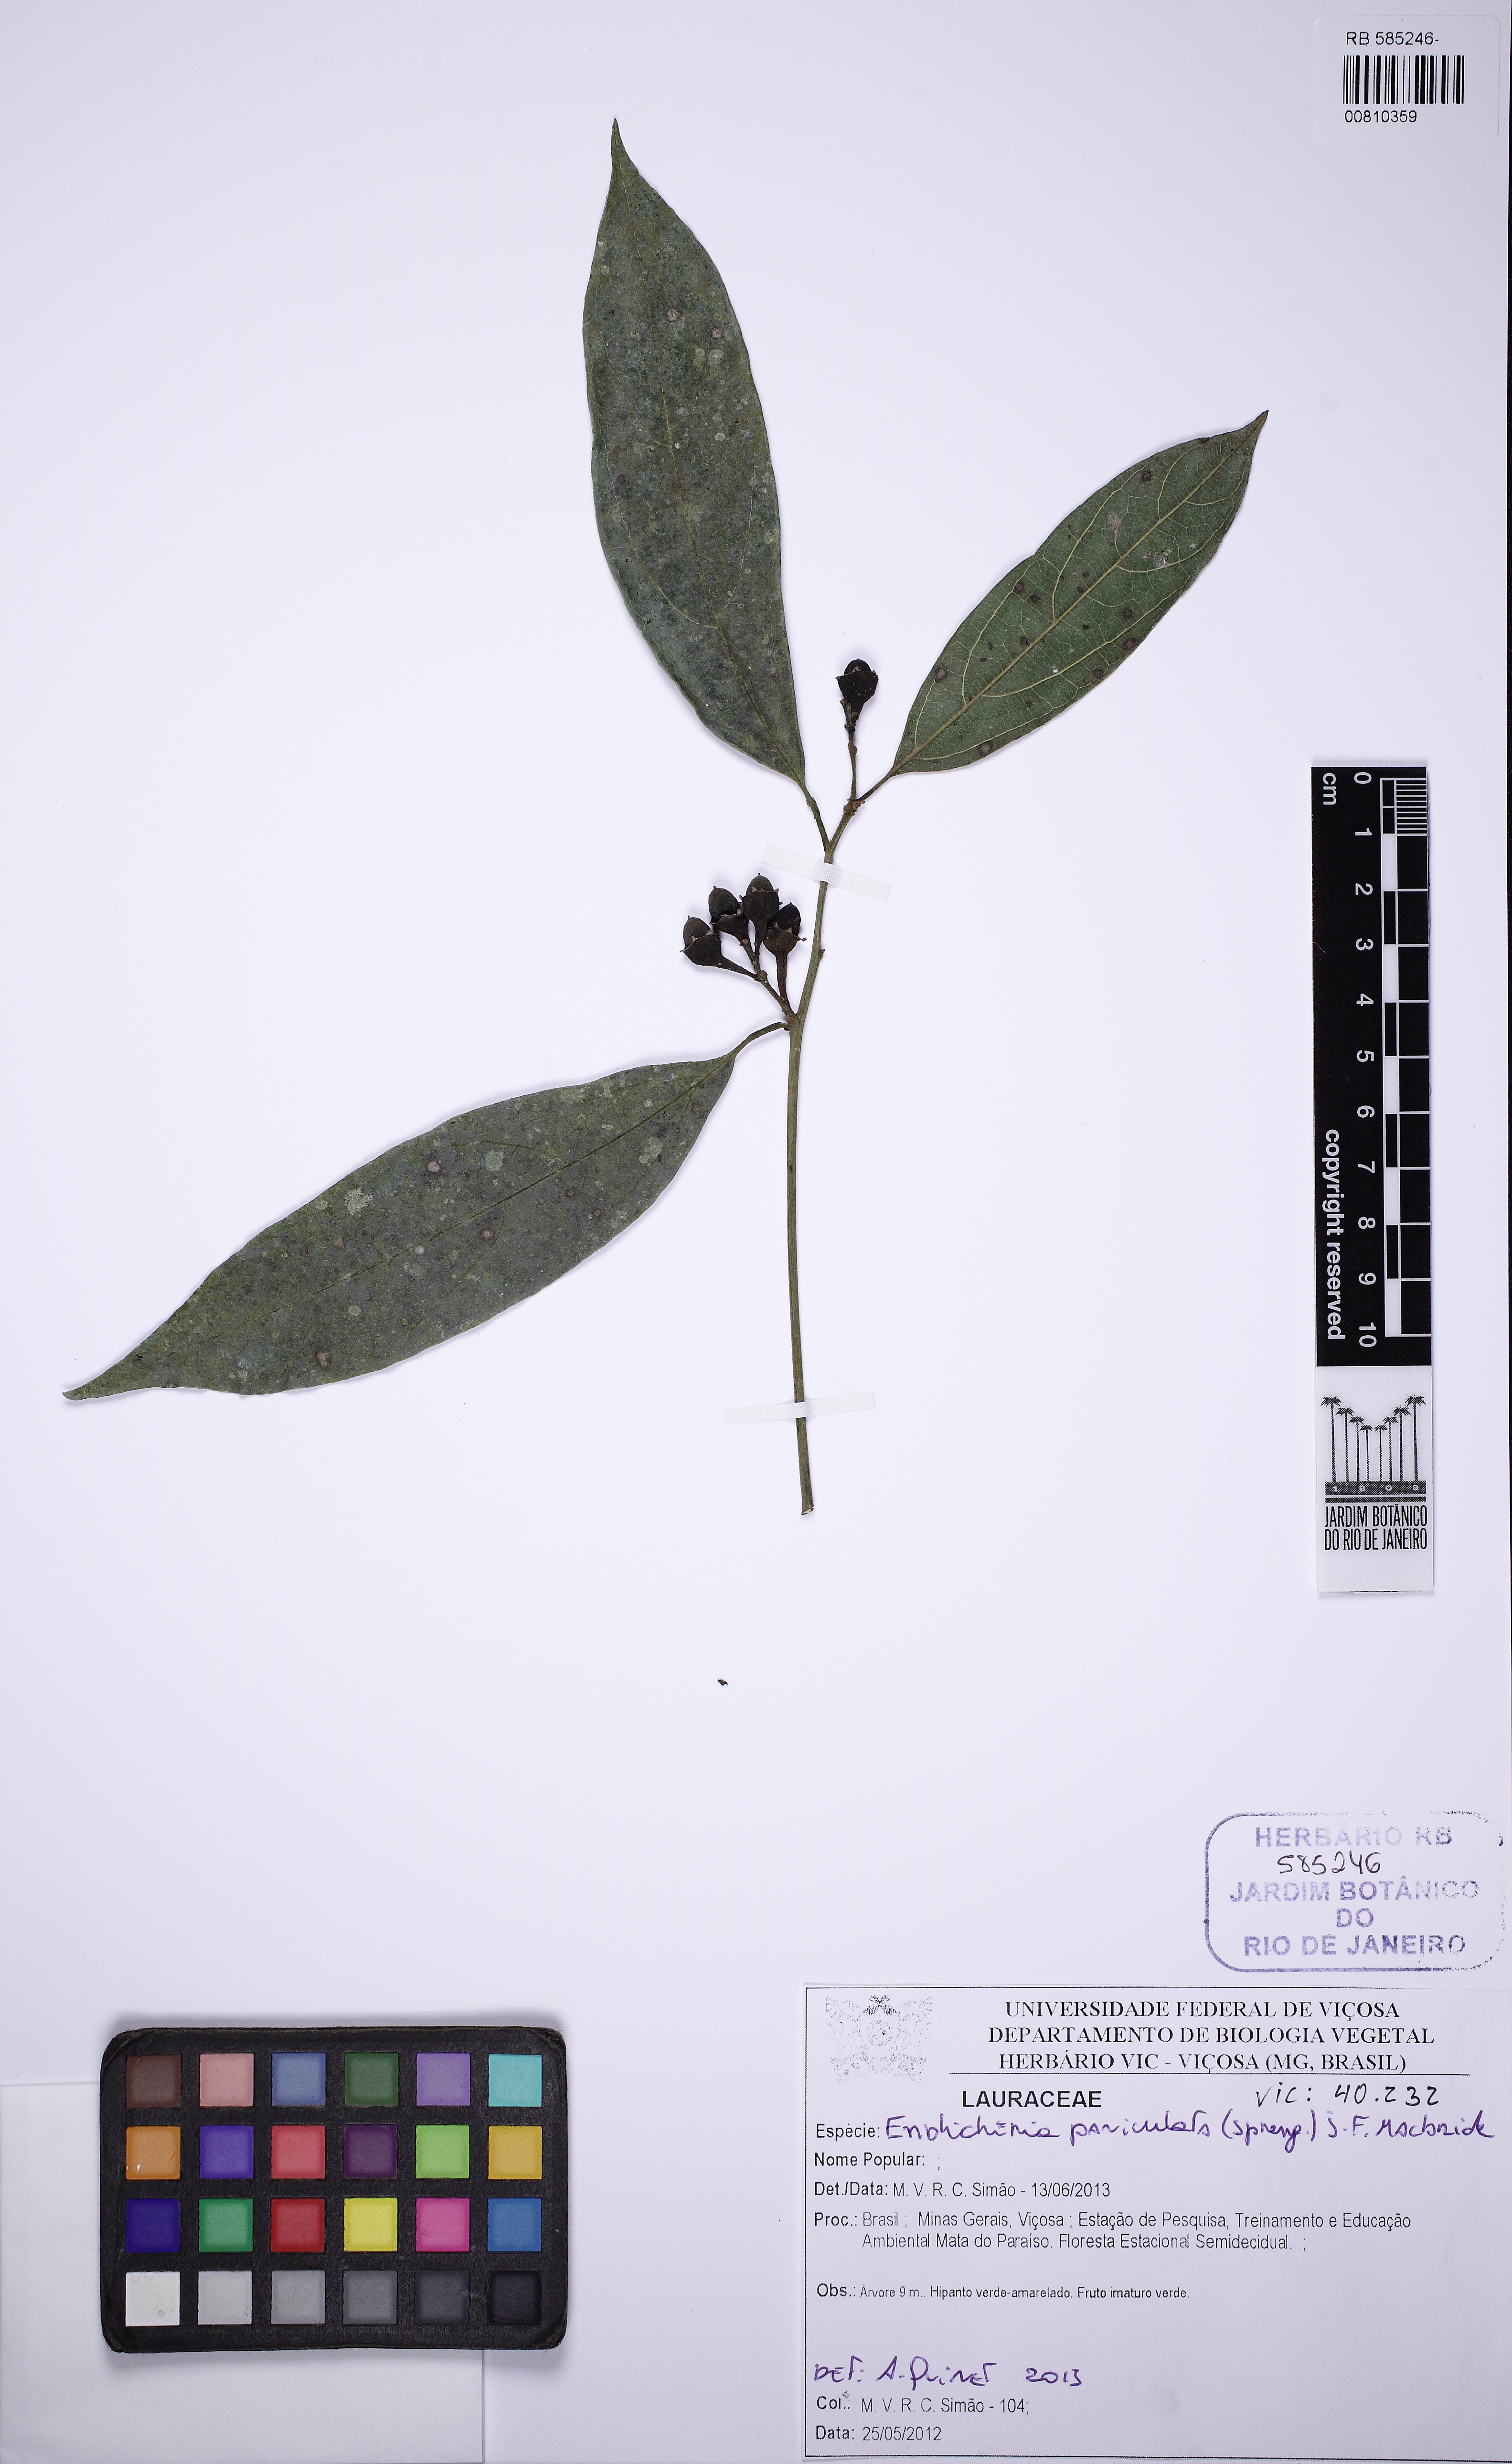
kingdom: Plantae
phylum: Tracheophyta
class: Magnoliopsida
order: Laurales
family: Lauraceae
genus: Endlicheria
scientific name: Endlicheria paniculata
